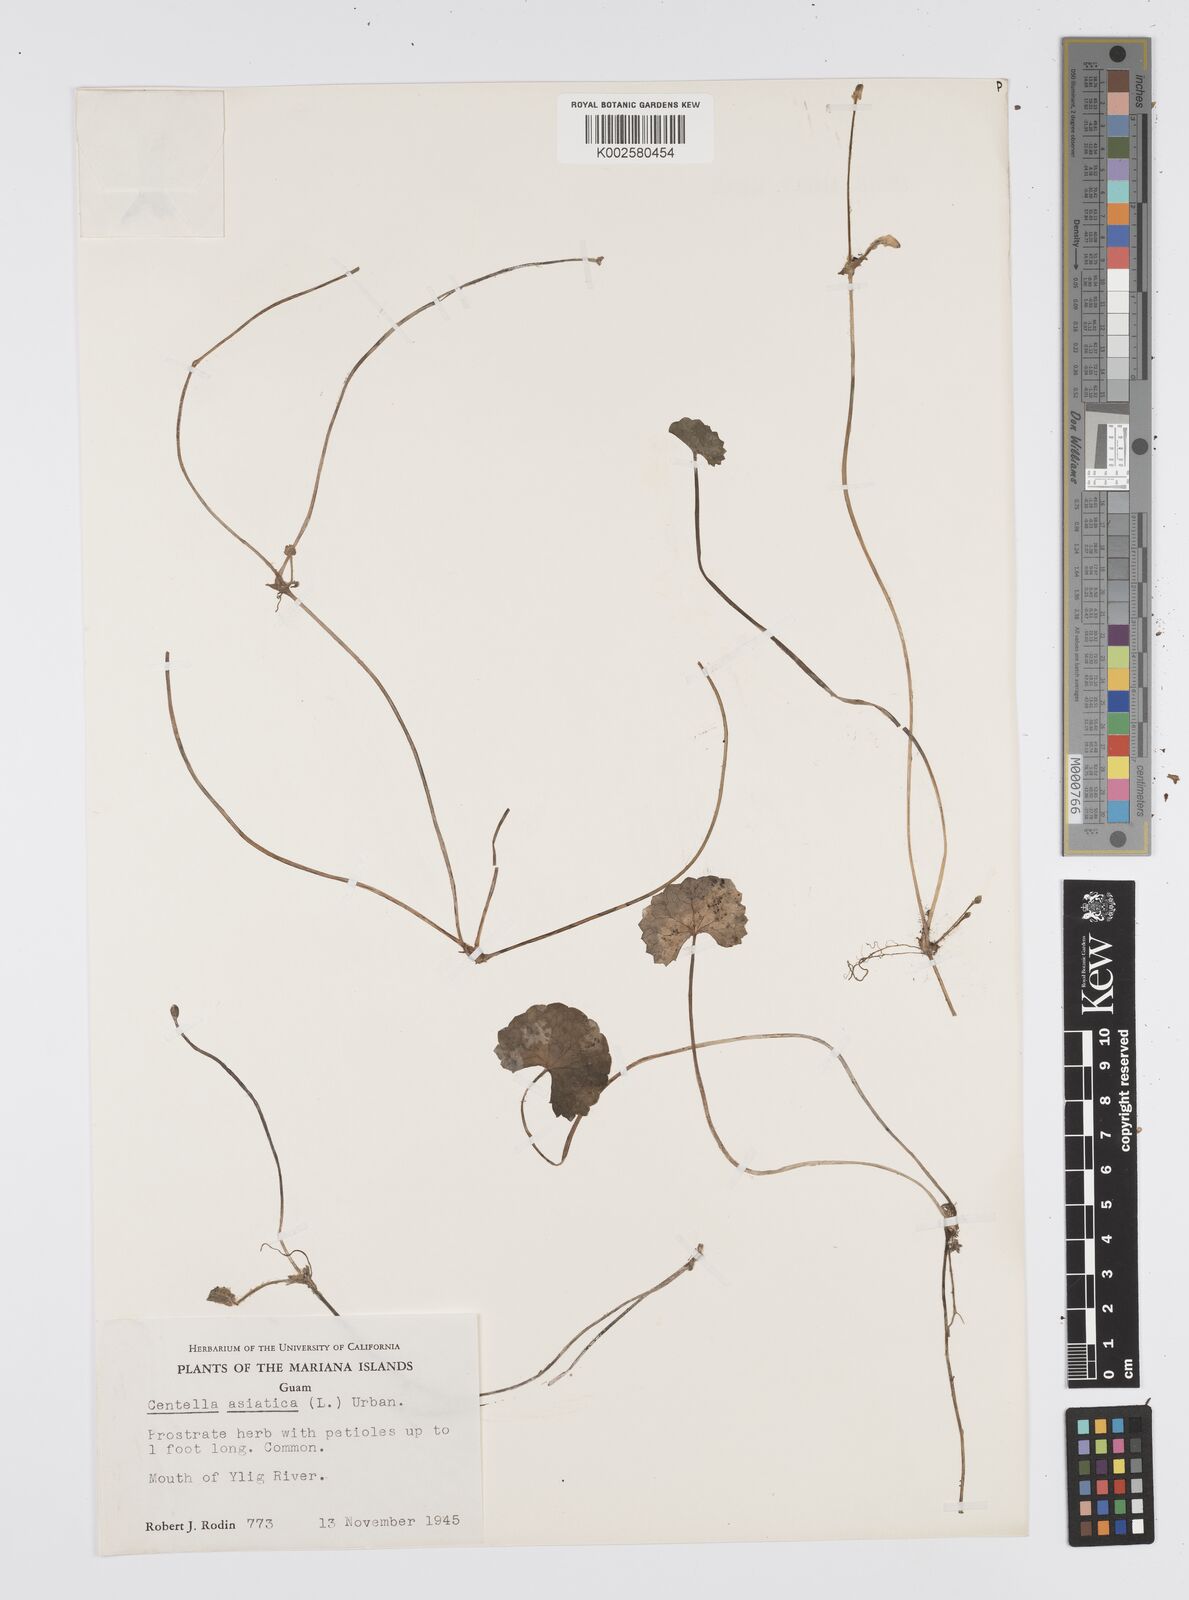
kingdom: Plantae
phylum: Tracheophyta
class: Magnoliopsida
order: Apiales
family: Apiaceae
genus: Centella
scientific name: Centella asiatica
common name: Spadeleaf
